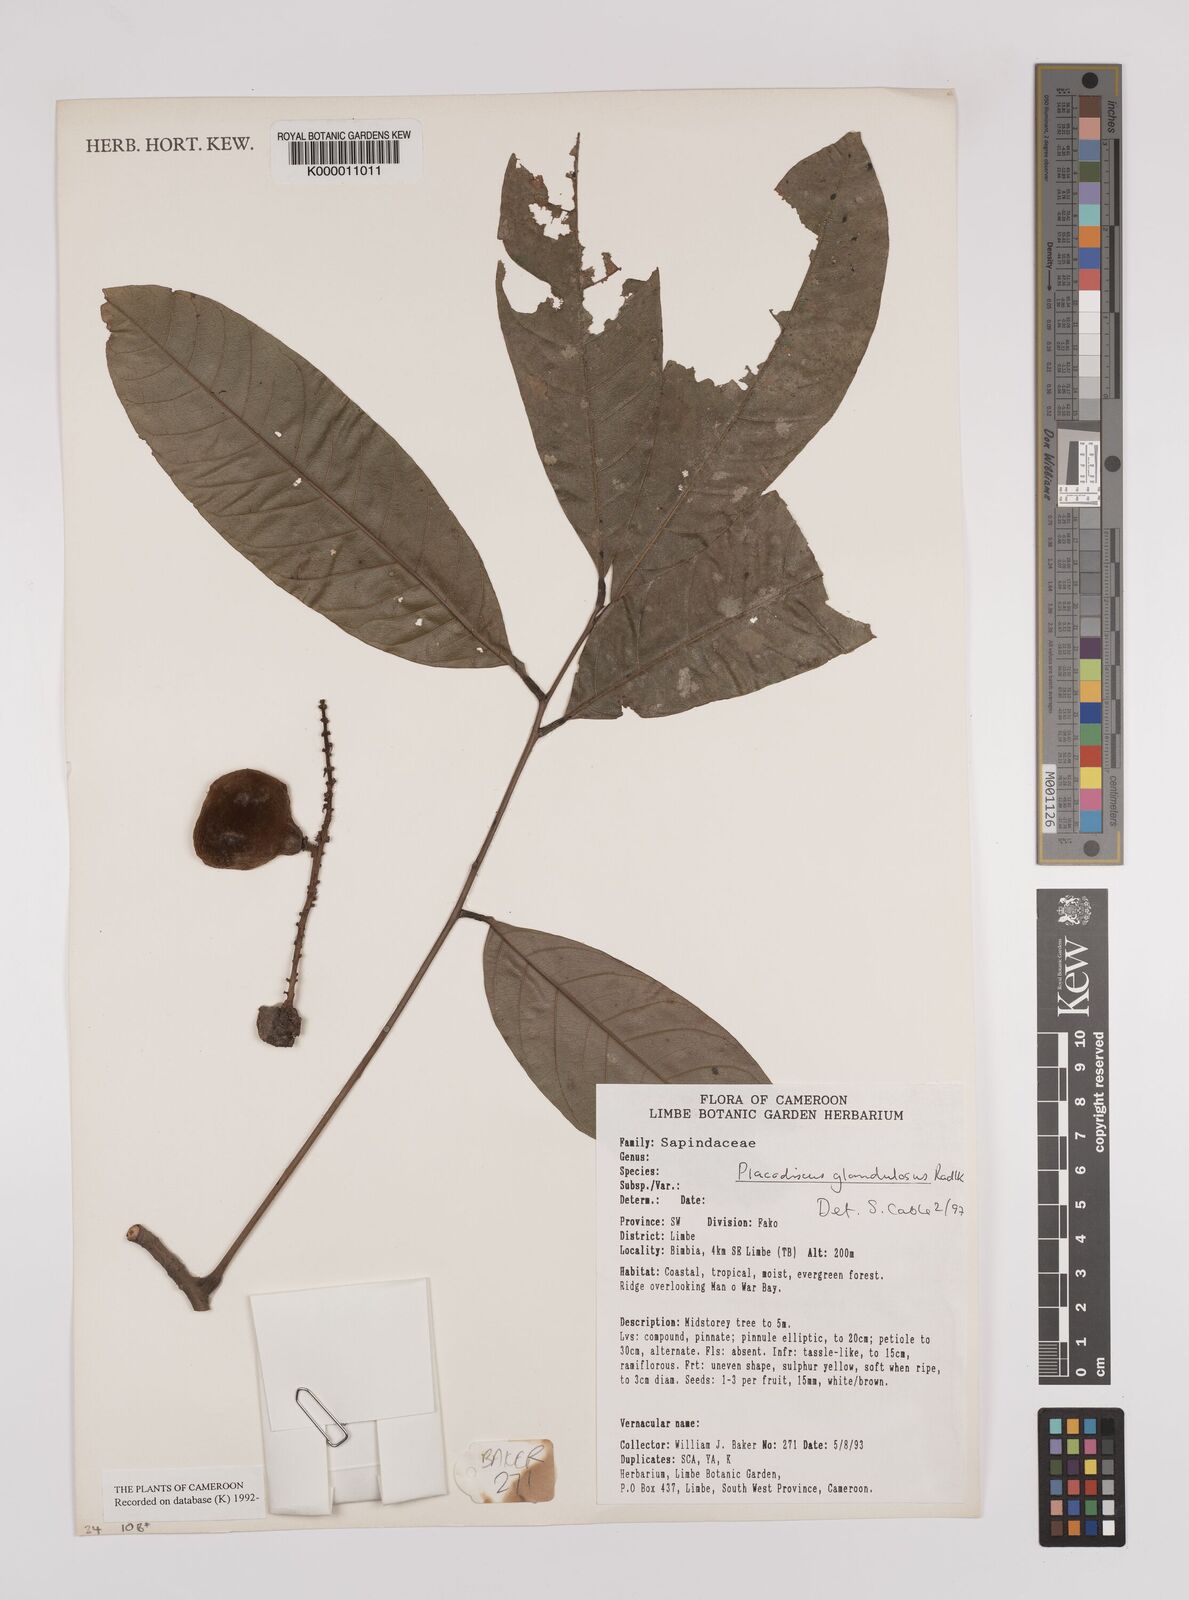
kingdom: Plantae
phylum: Tracheophyta
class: Magnoliopsida
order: Sapindales
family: Sapindaceae
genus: Placodiscus
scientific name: Placodiscus glandulosus
